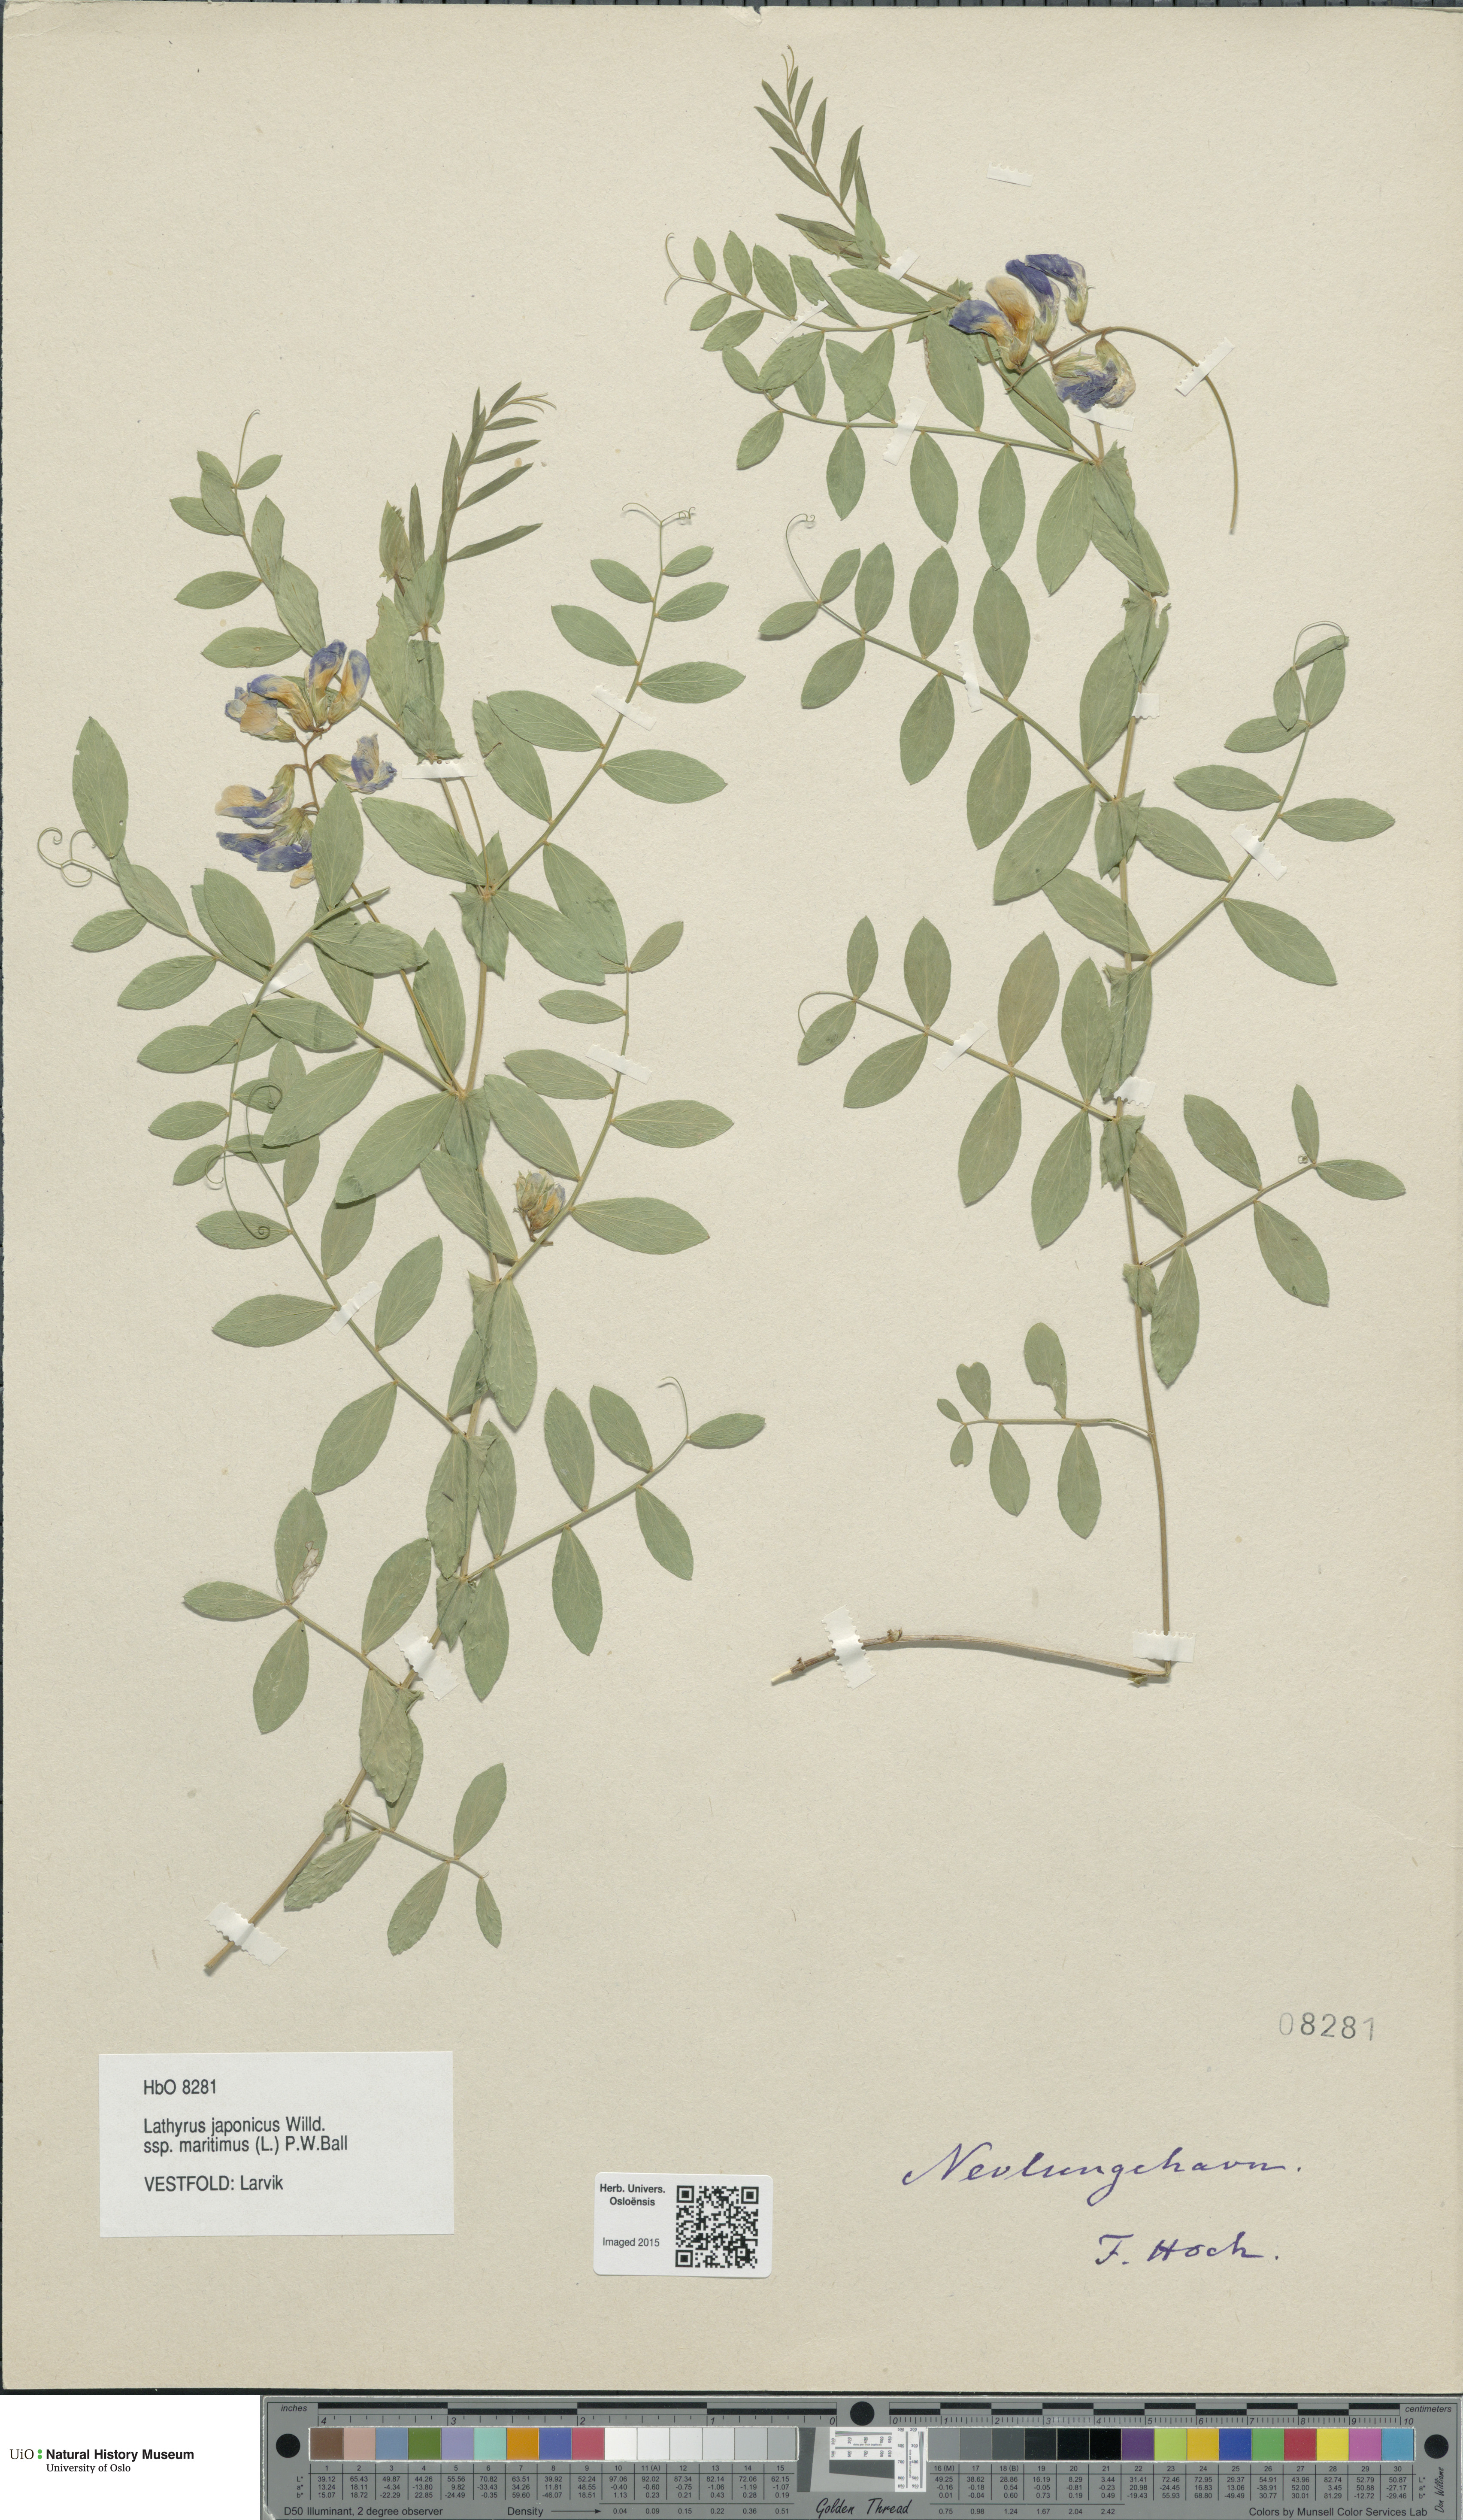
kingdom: Plantae
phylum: Tracheophyta
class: Magnoliopsida
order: Fabales
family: Fabaceae
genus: Lathyrus
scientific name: Lathyrus japonicus
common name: Sea pea
